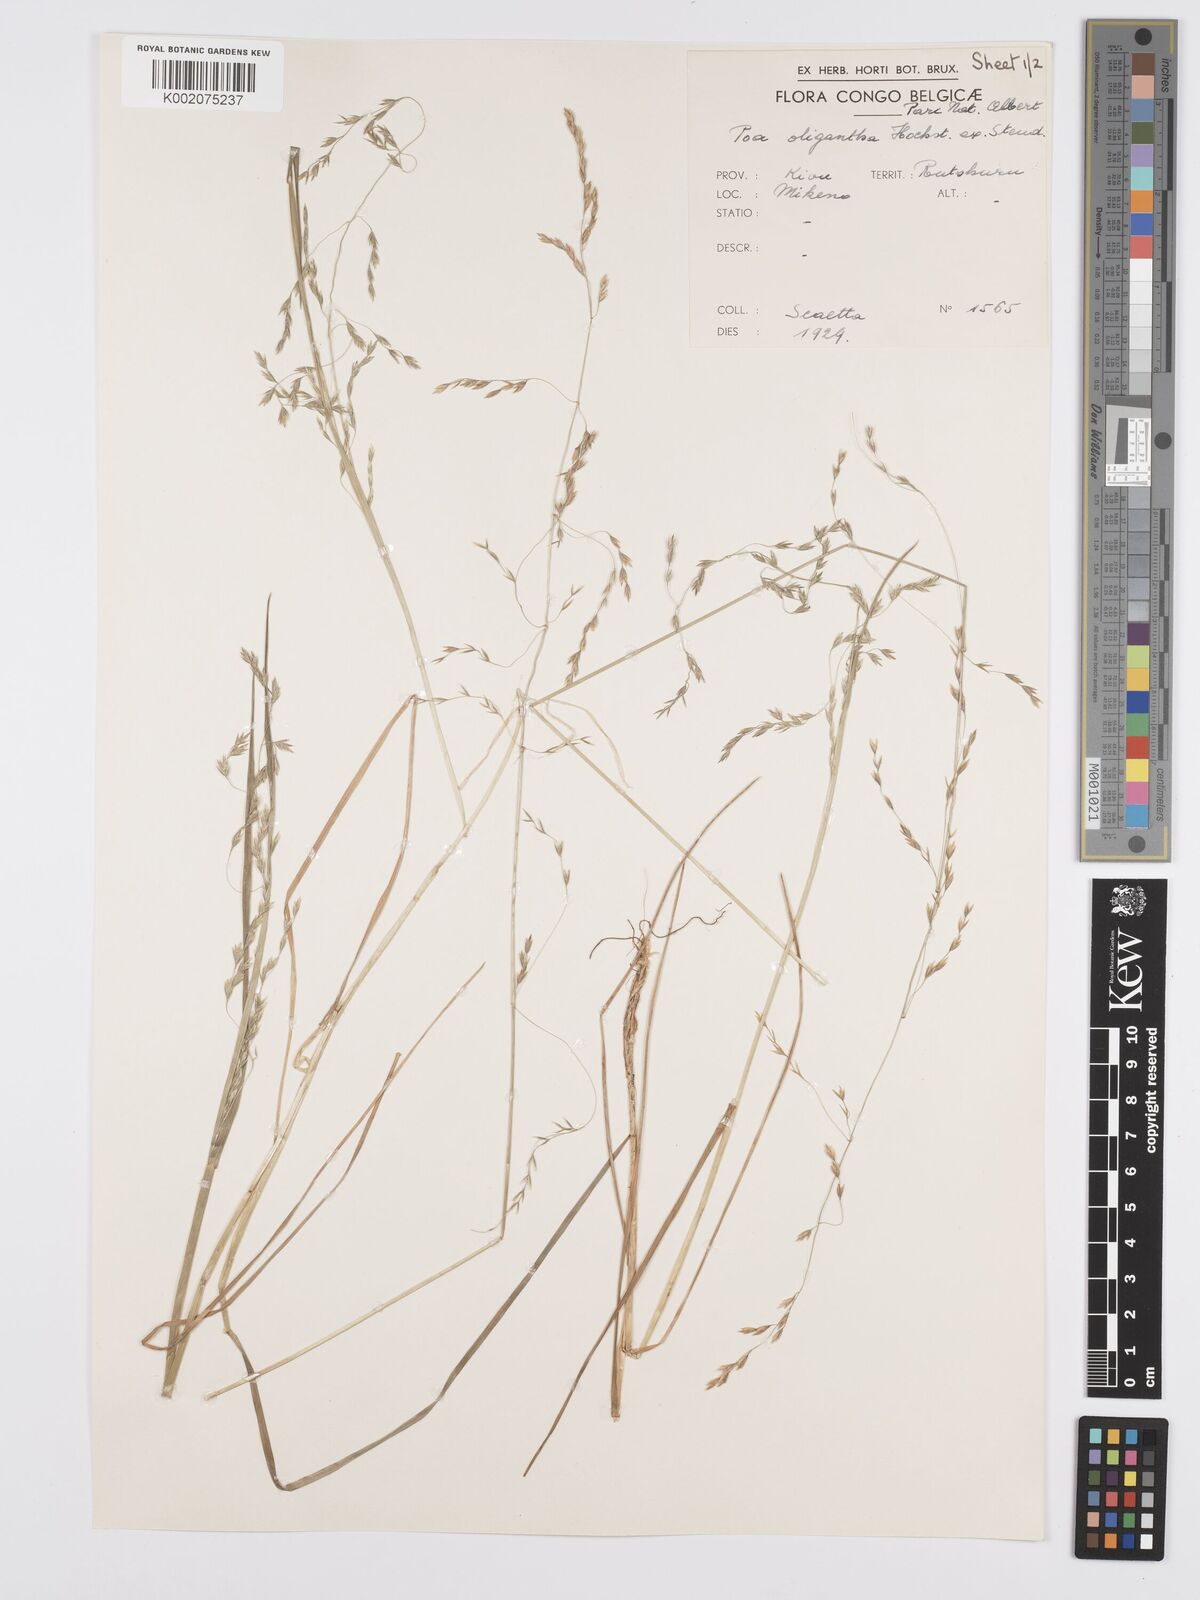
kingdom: Plantae
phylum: Tracheophyta
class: Liliopsida
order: Poales
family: Poaceae
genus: Poa
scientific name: Poa schimperiana
